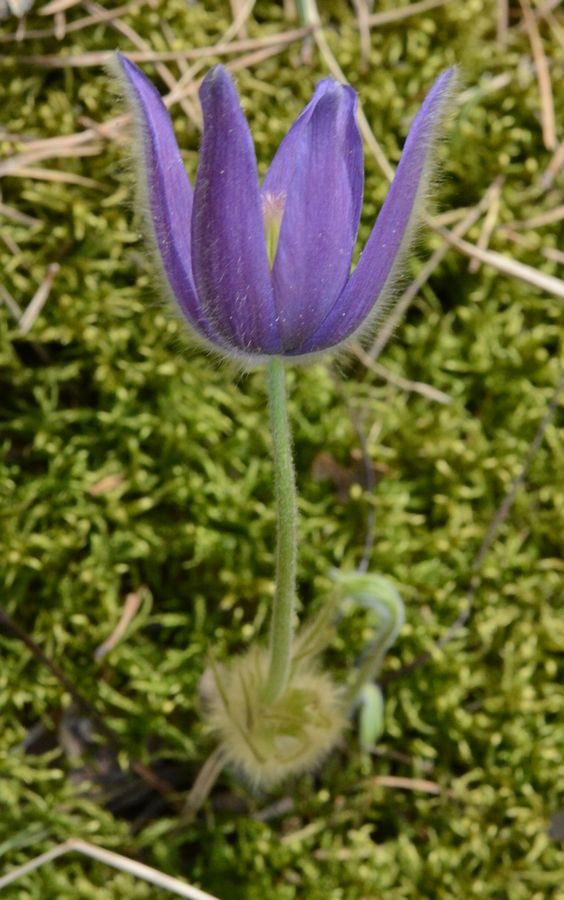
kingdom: Plantae
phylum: Tracheophyta
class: Magnoliopsida
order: Ranunculales
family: Ranunculaceae
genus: Pulsatilla
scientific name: Pulsatilla herba-somnii
